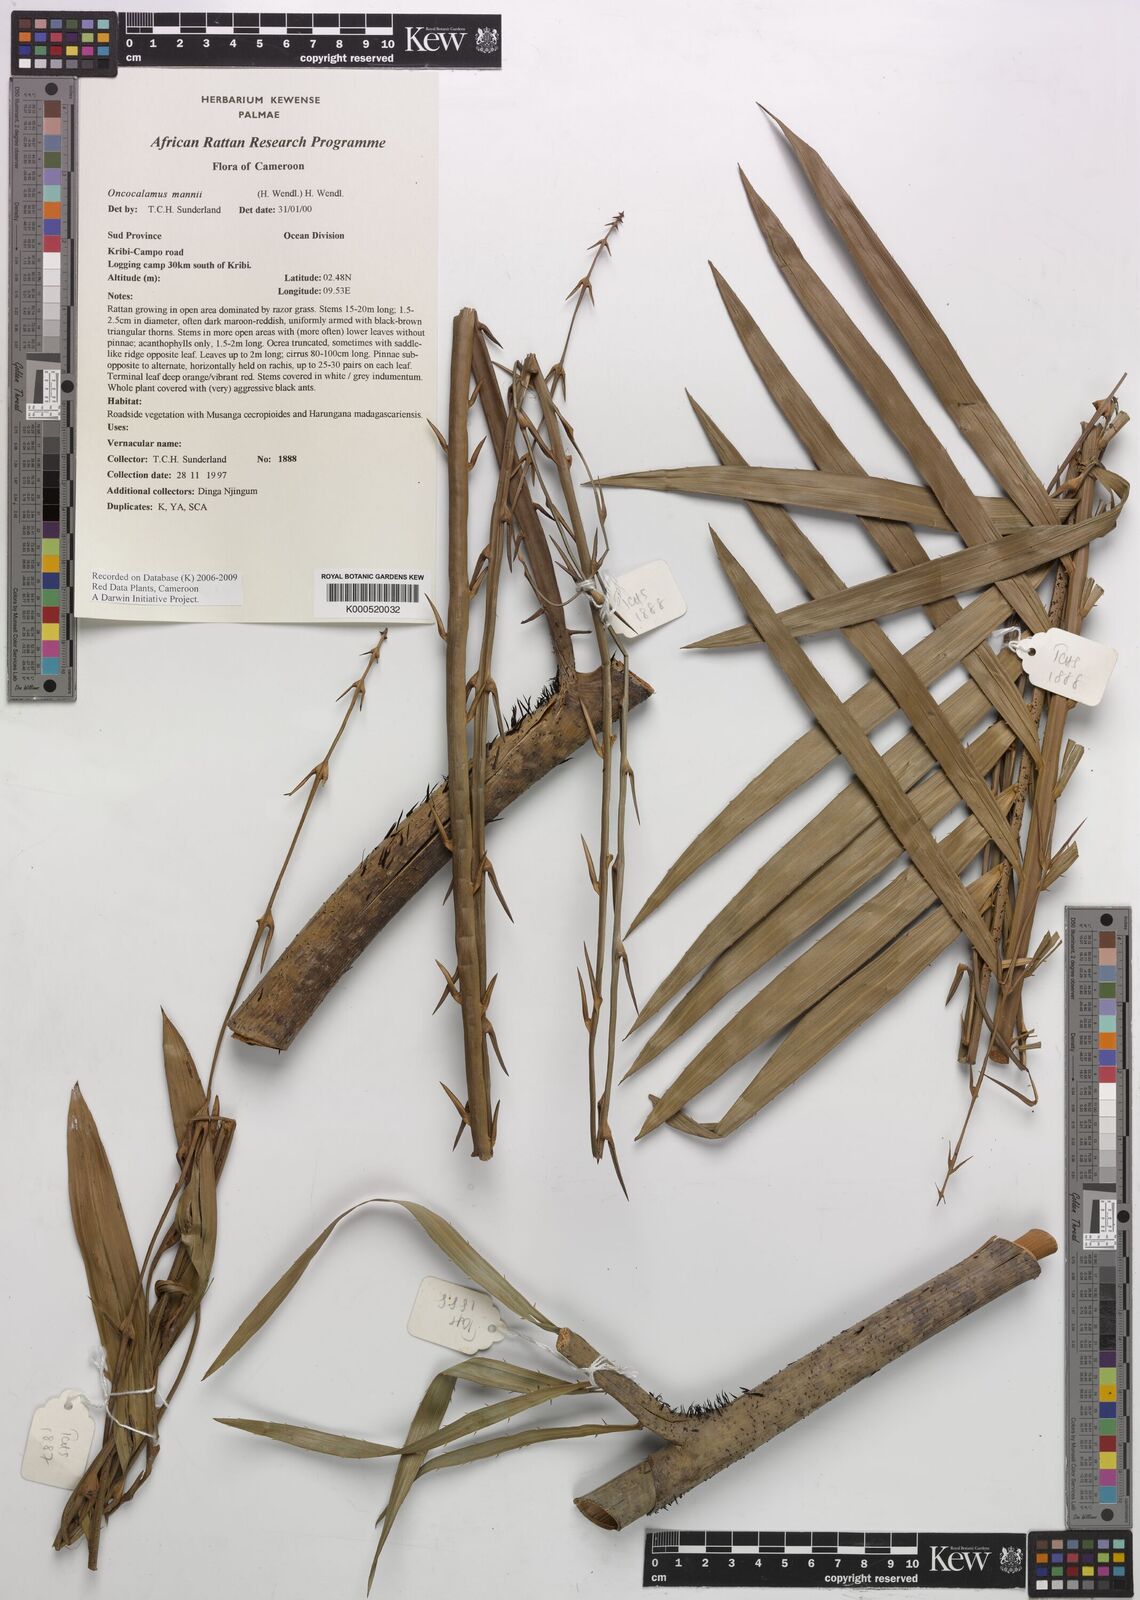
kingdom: Plantae
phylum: Tracheophyta
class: Liliopsida
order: Arecales
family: Arecaceae
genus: Oncocalamus
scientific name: Oncocalamus mannii
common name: Rattan
